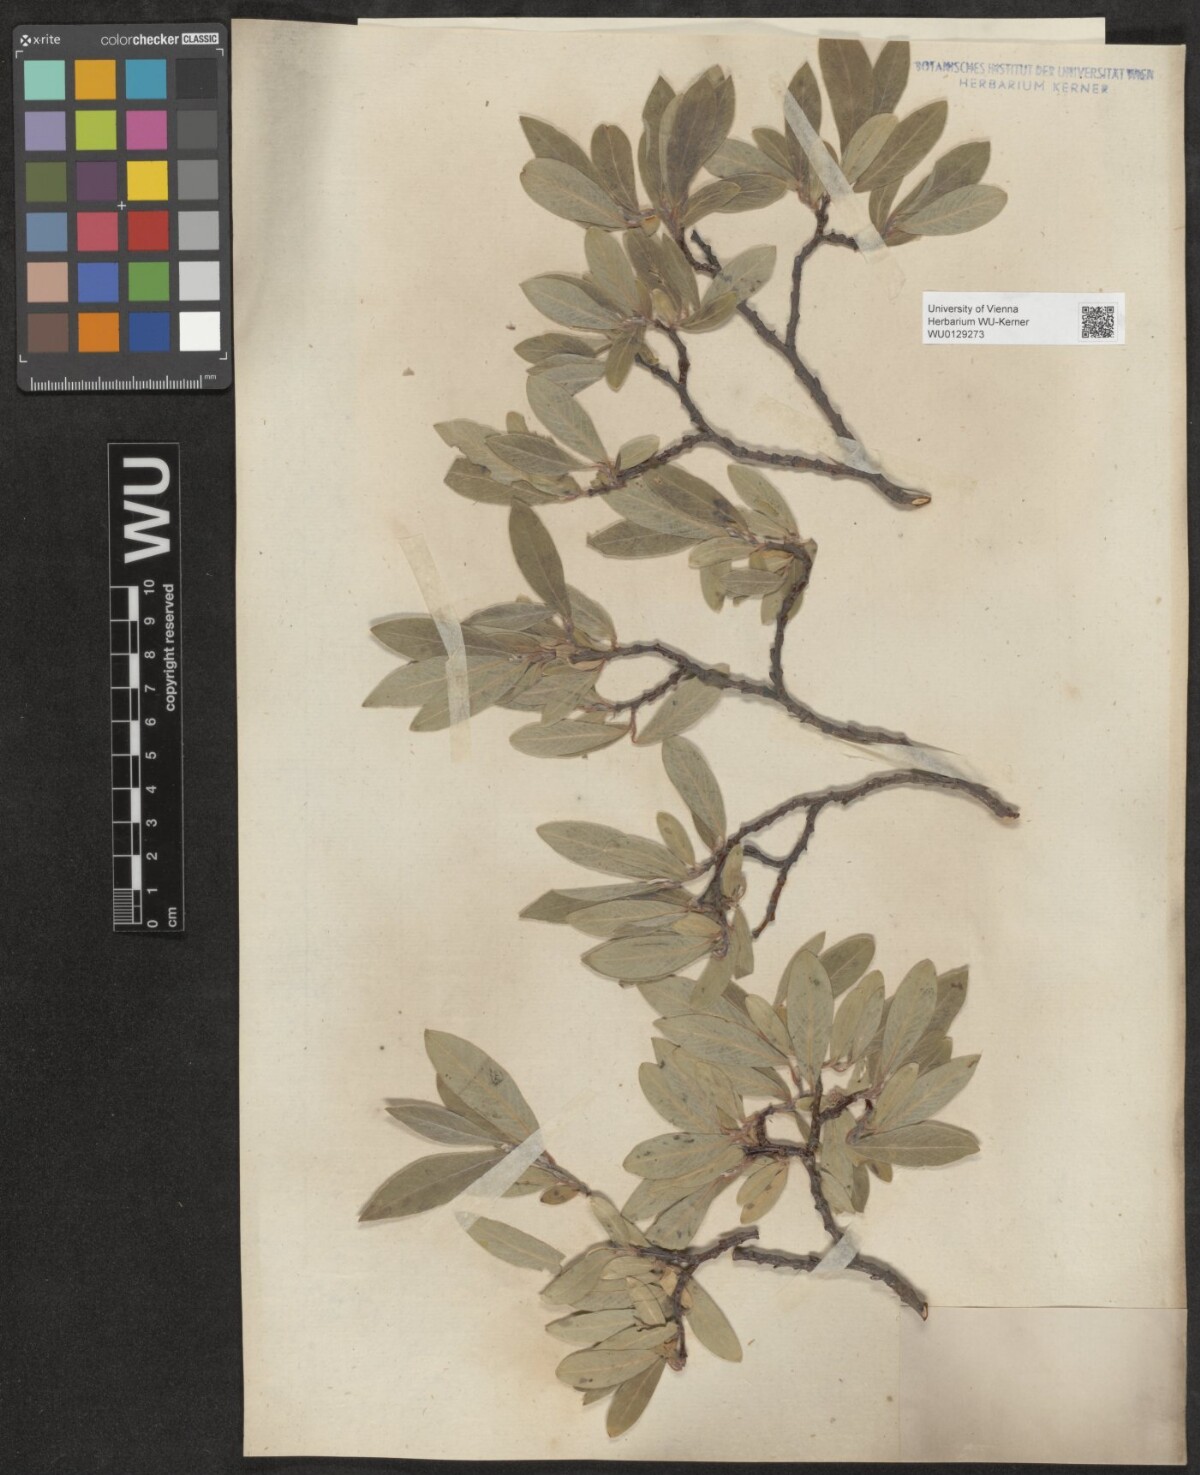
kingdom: Plantae
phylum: Tracheophyta
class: Magnoliopsida
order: Malpighiales
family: Salicaceae
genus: Salix
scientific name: Salix glauca
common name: Glaucous willow
